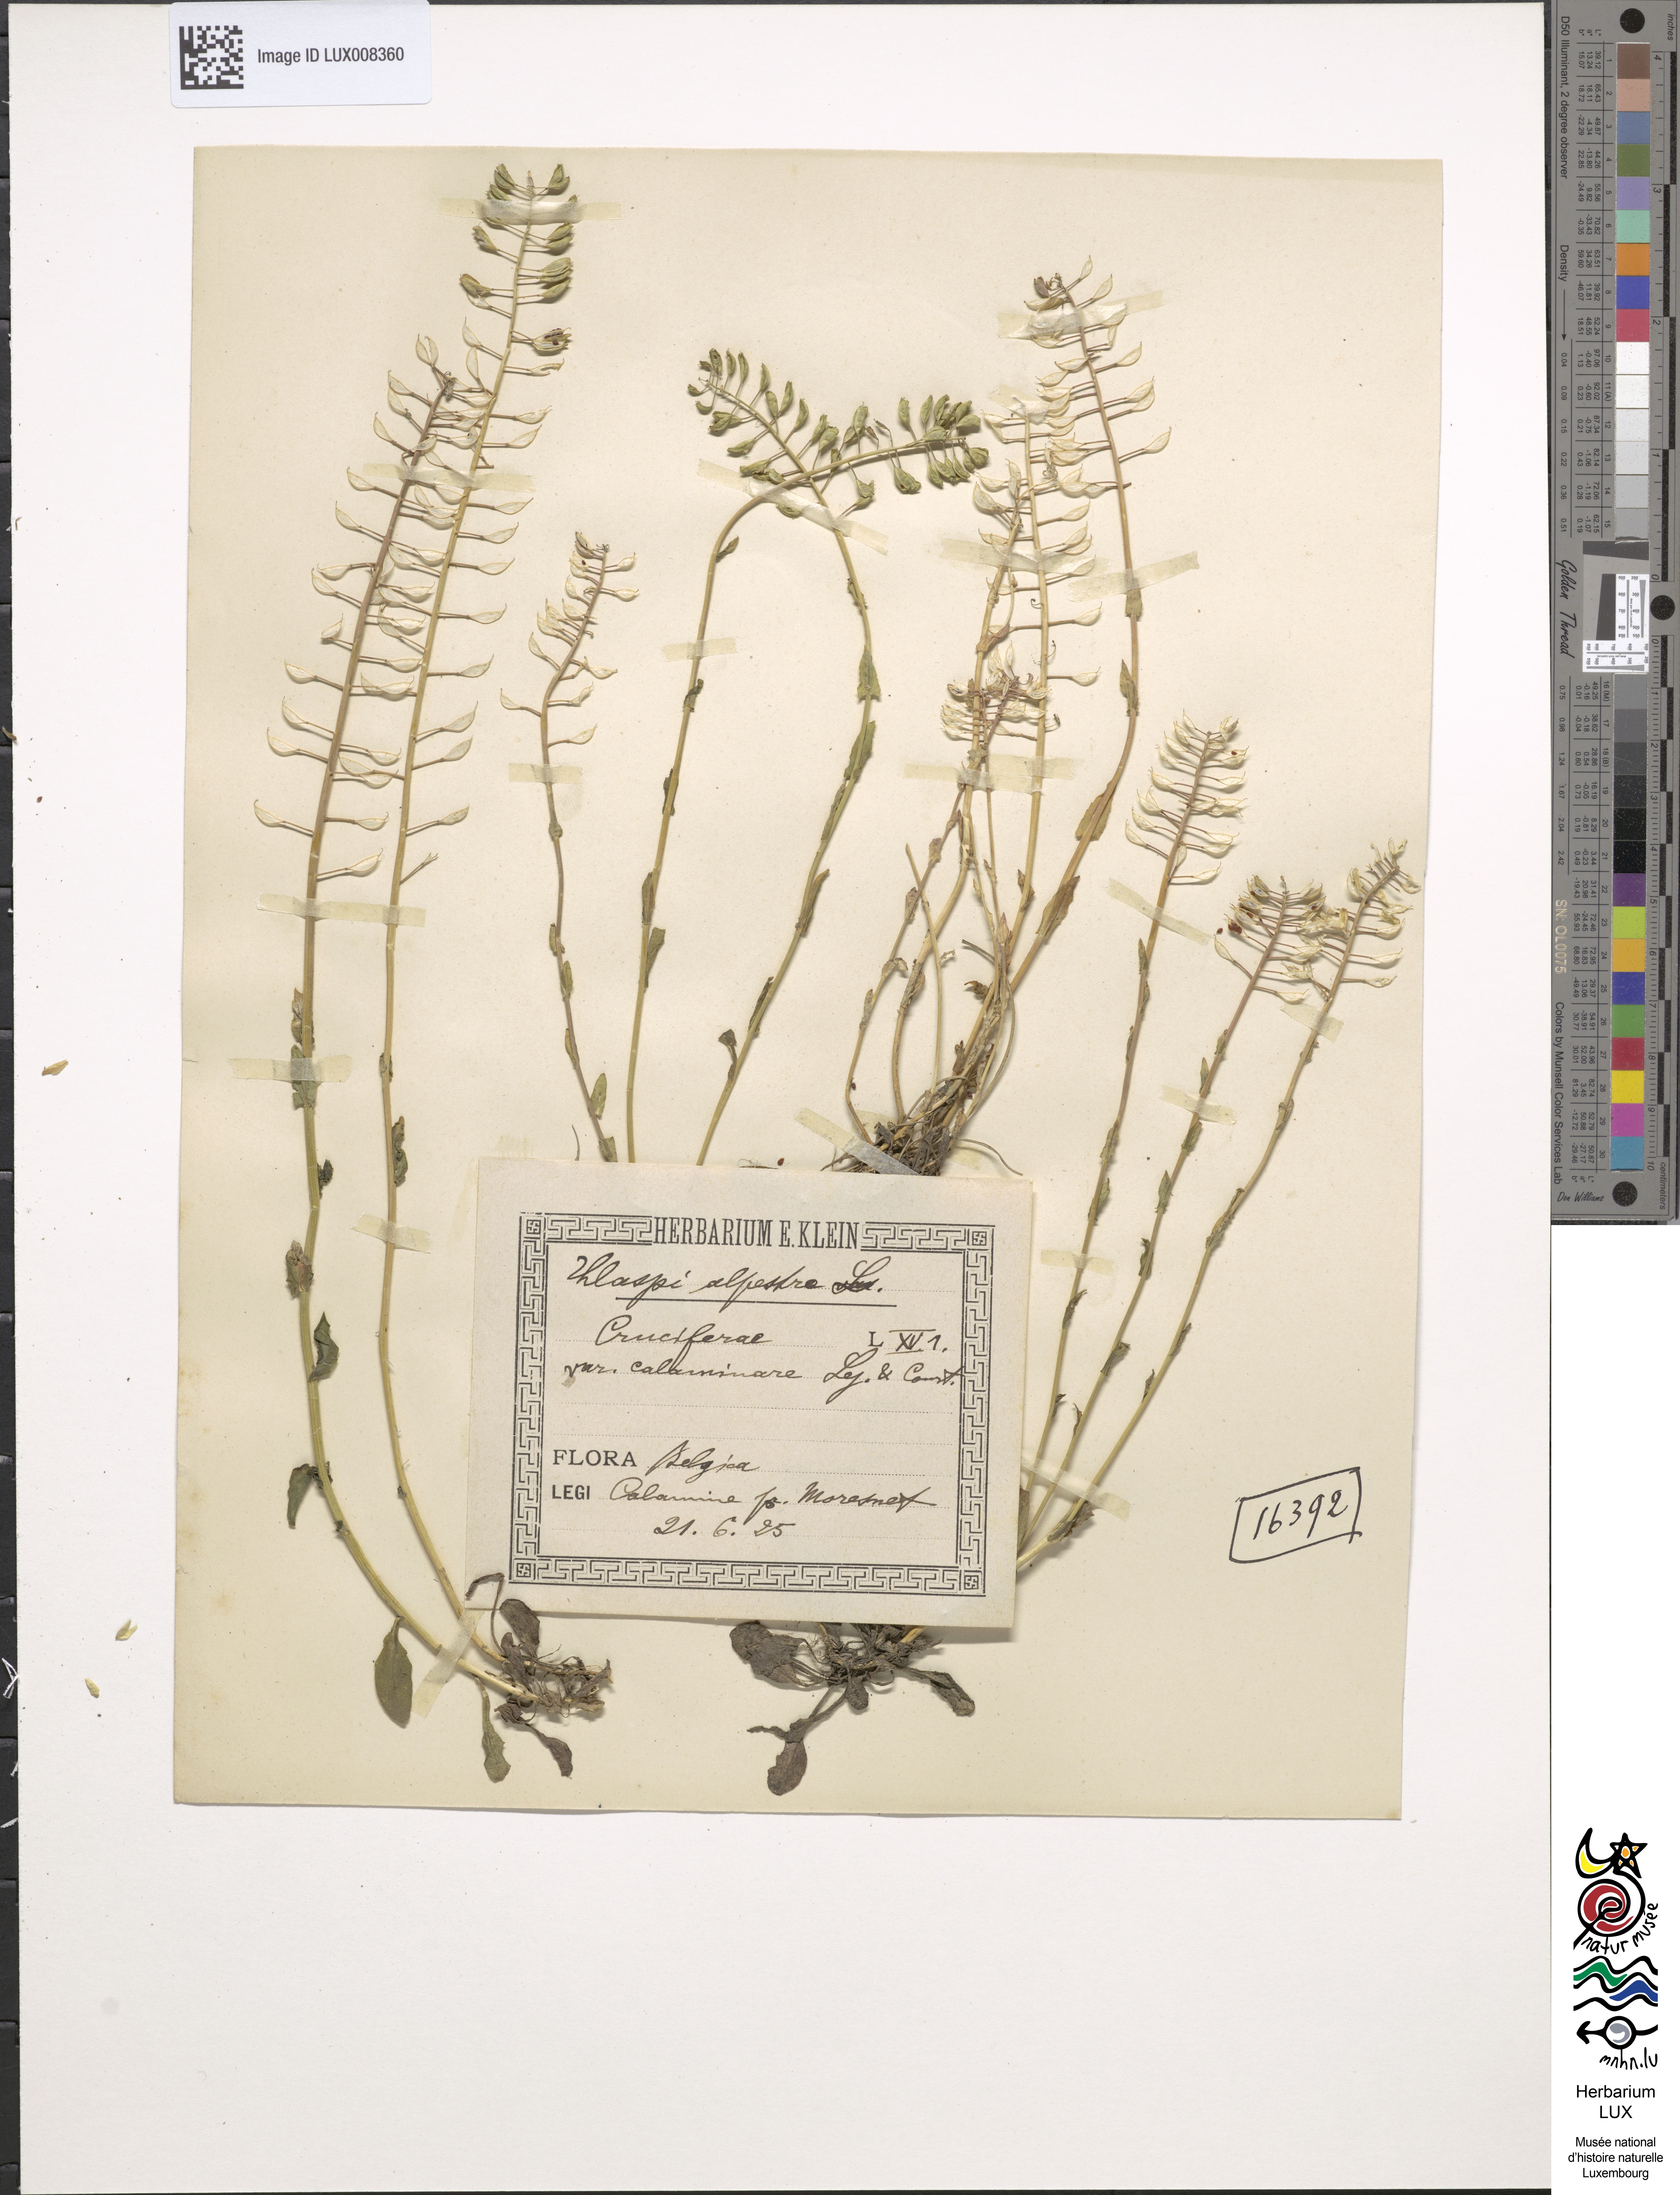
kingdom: Plantae
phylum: Tracheophyta
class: Magnoliopsida
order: Brassicales
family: Brassicaceae
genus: Noccaea
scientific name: Noccaea caerulescens
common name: Alpine pennycress
